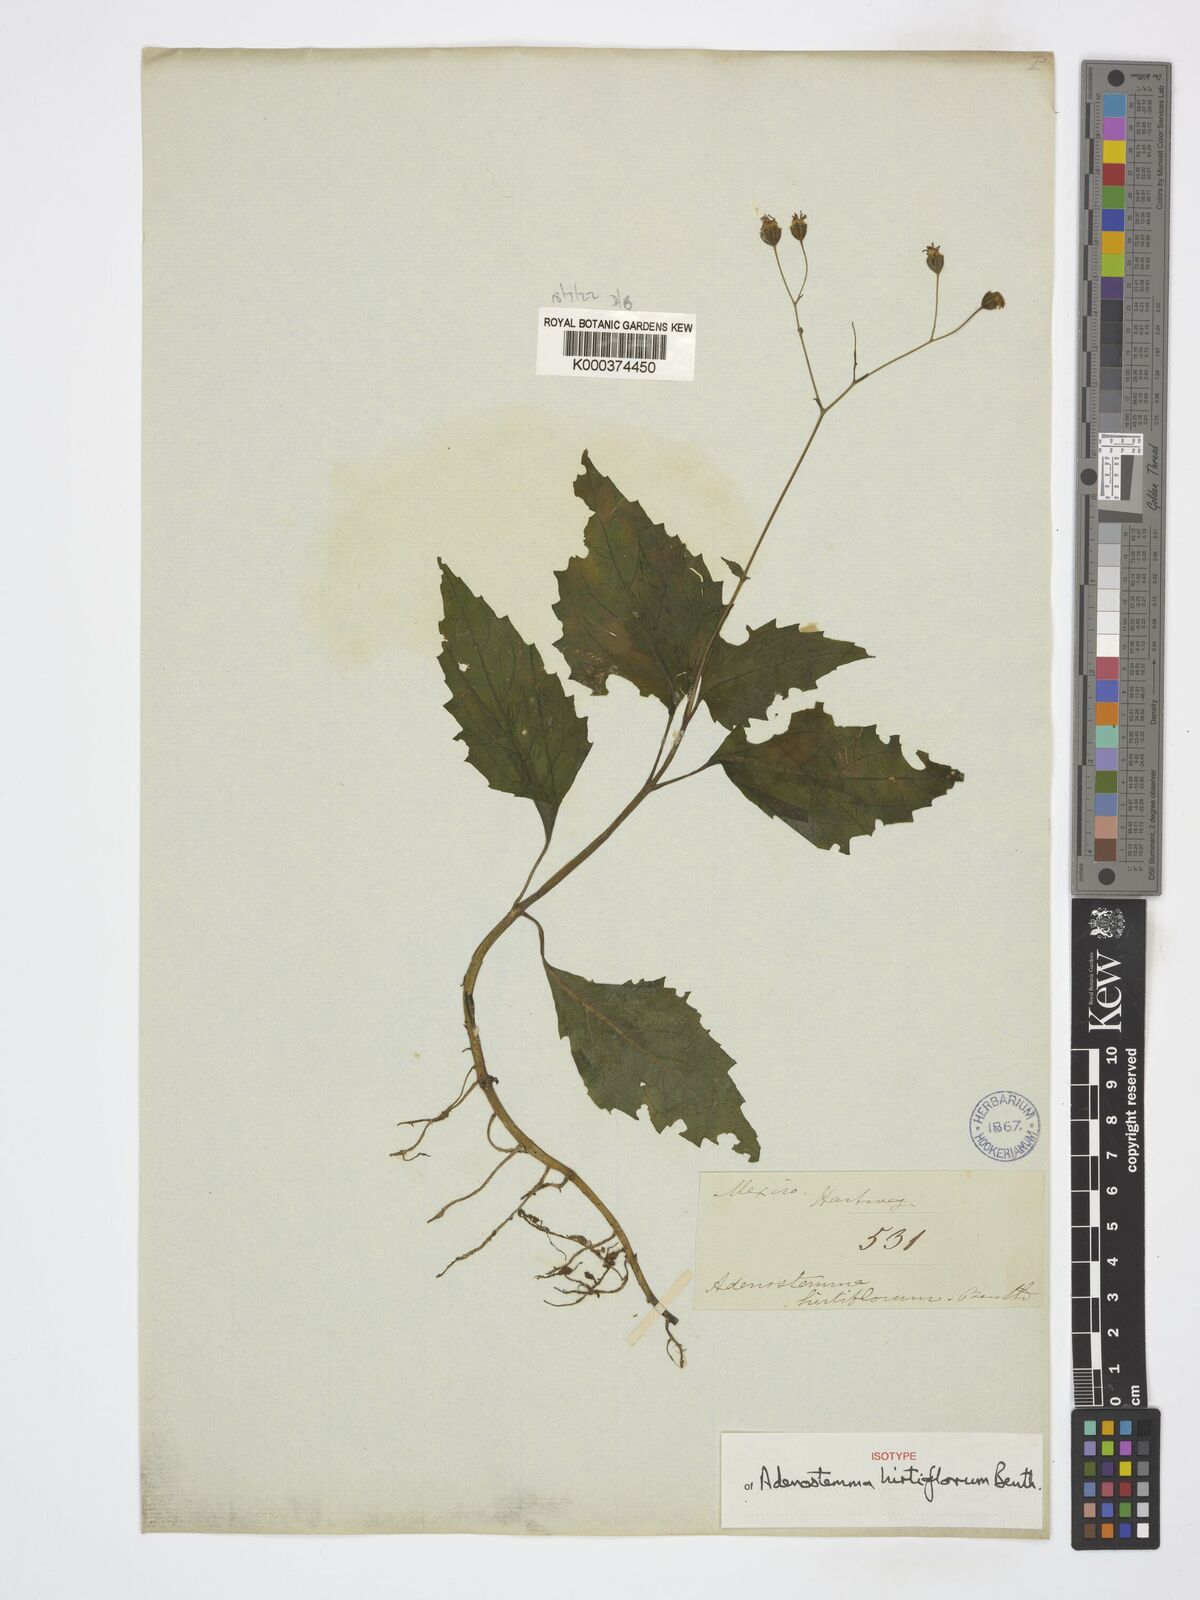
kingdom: Plantae
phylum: Tracheophyta
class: Magnoliopsida
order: Asterales
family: Asteraceae
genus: Adenostemma
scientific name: Adenostemma hirtiflorum
